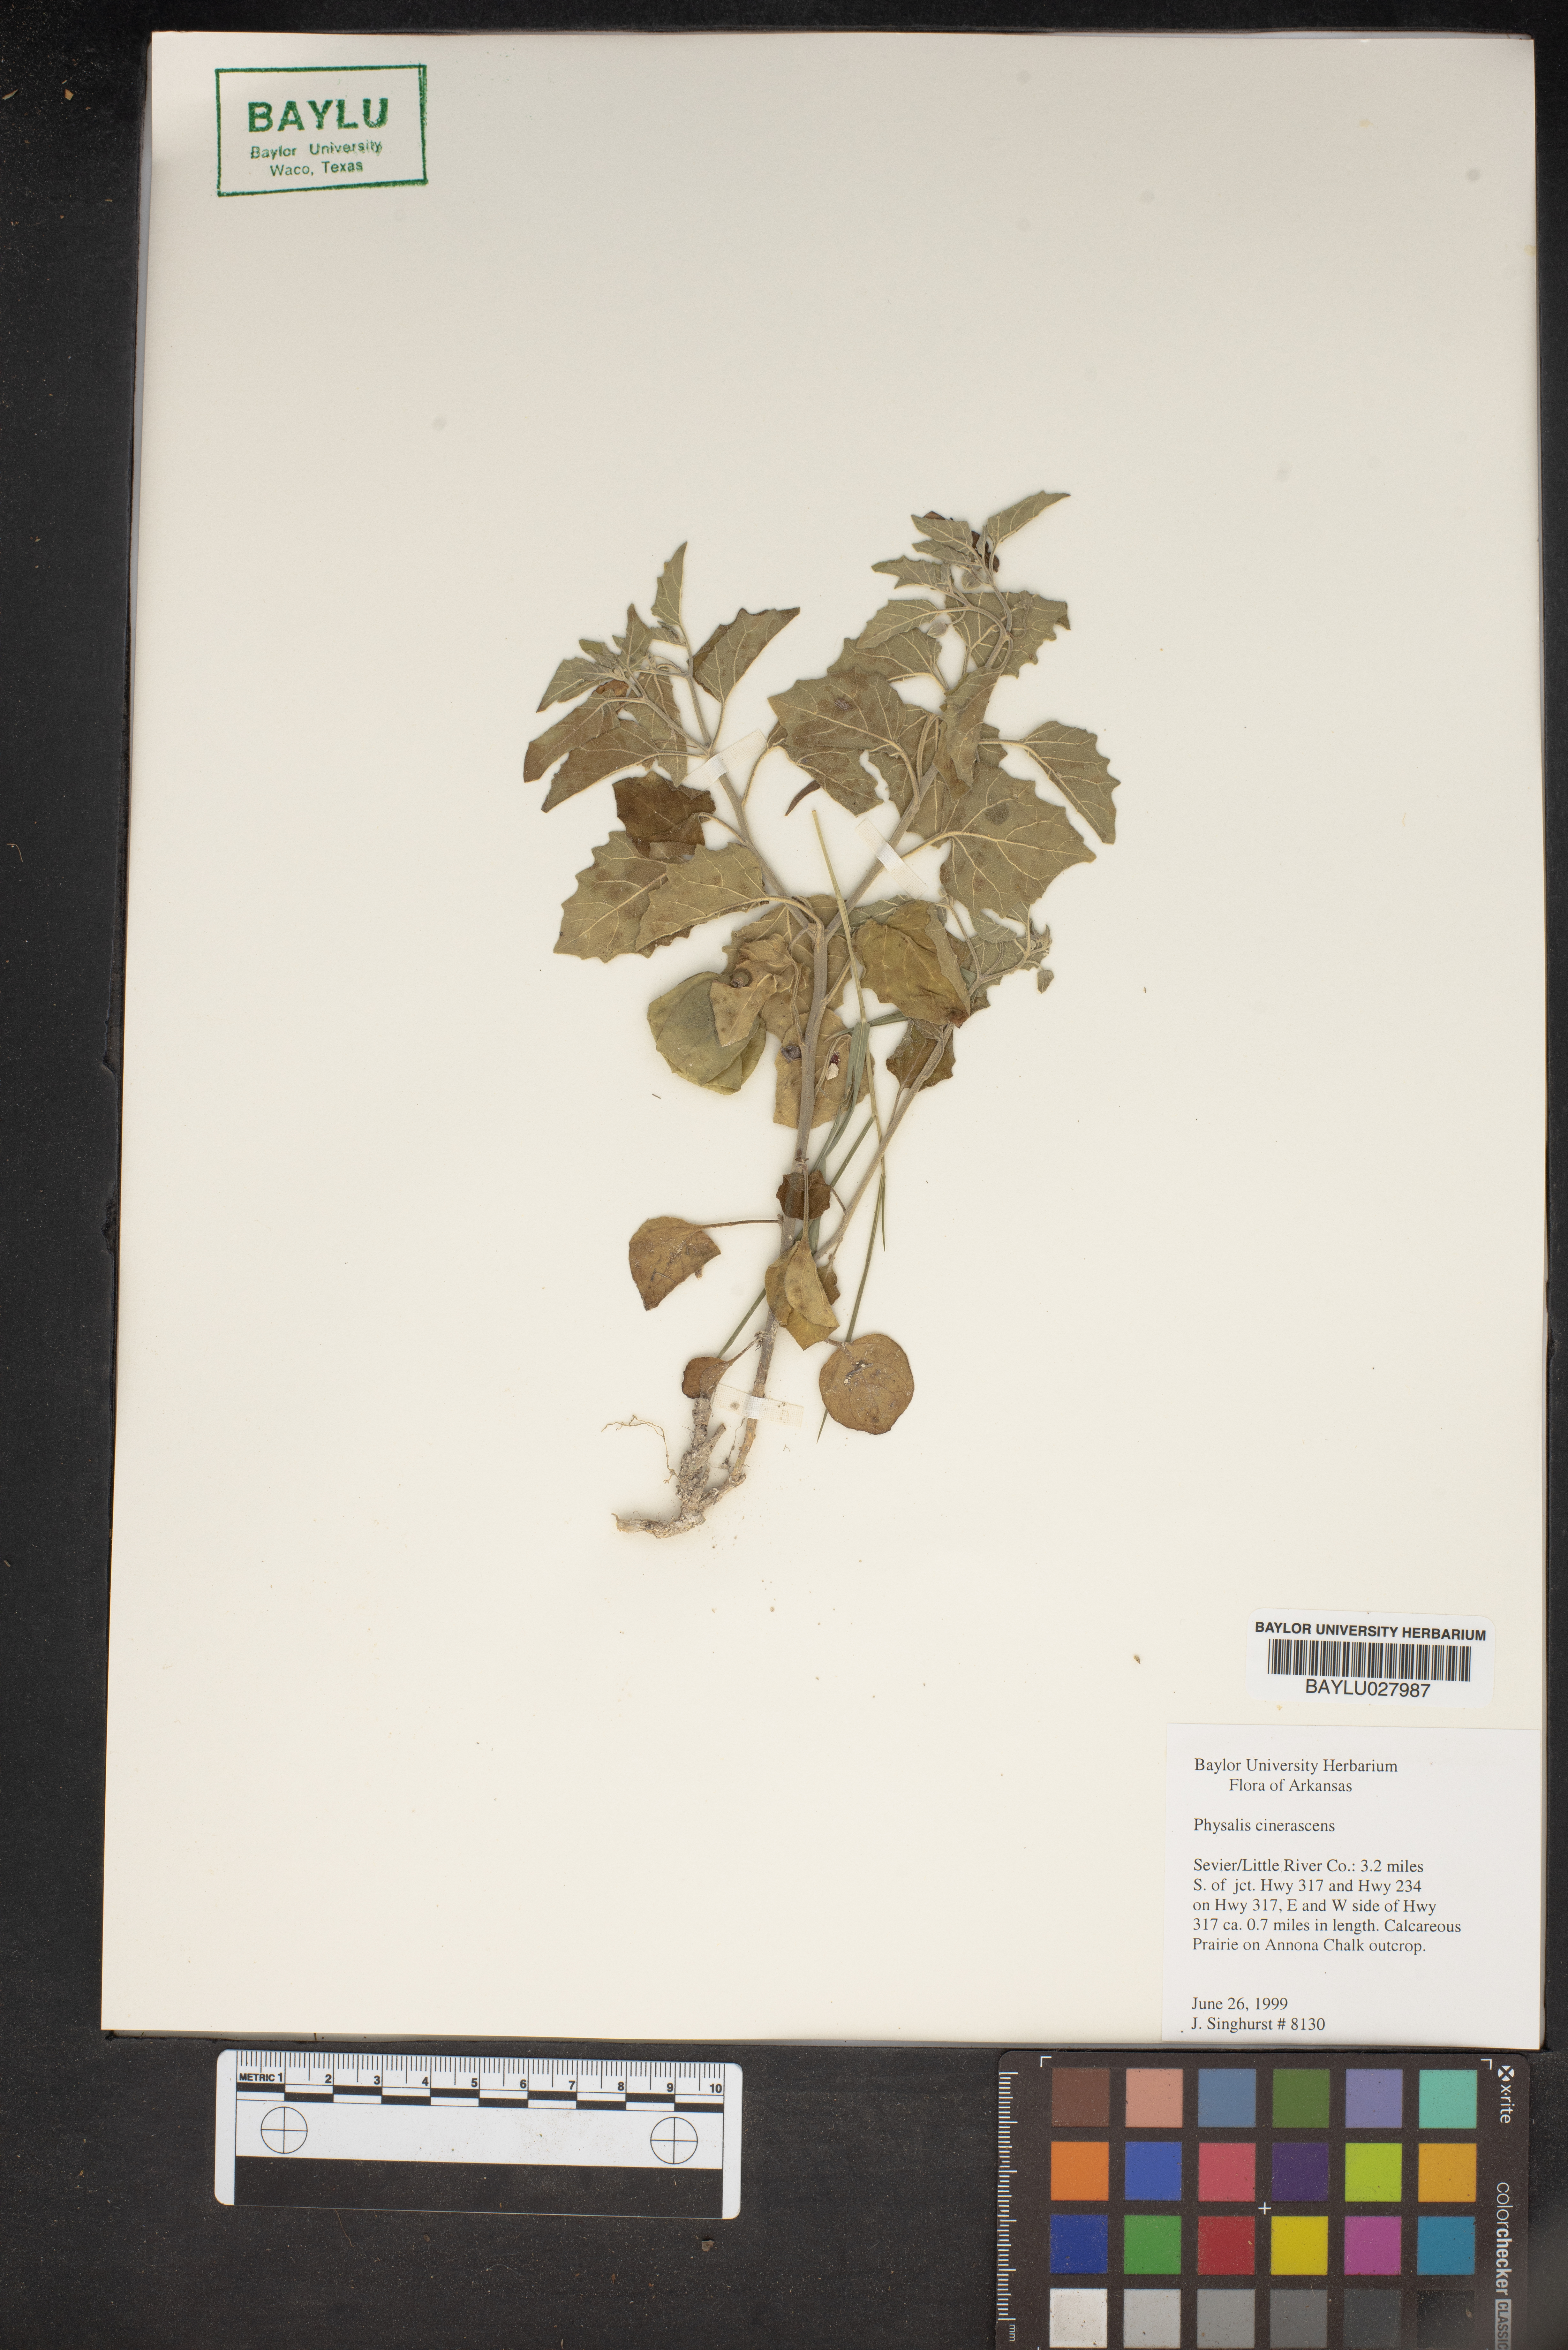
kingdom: Plantae
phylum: Tracheophyta
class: Magnoliopsida
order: Solanales
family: Solanaceae
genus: Physalis
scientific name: Physalis cinerascens
